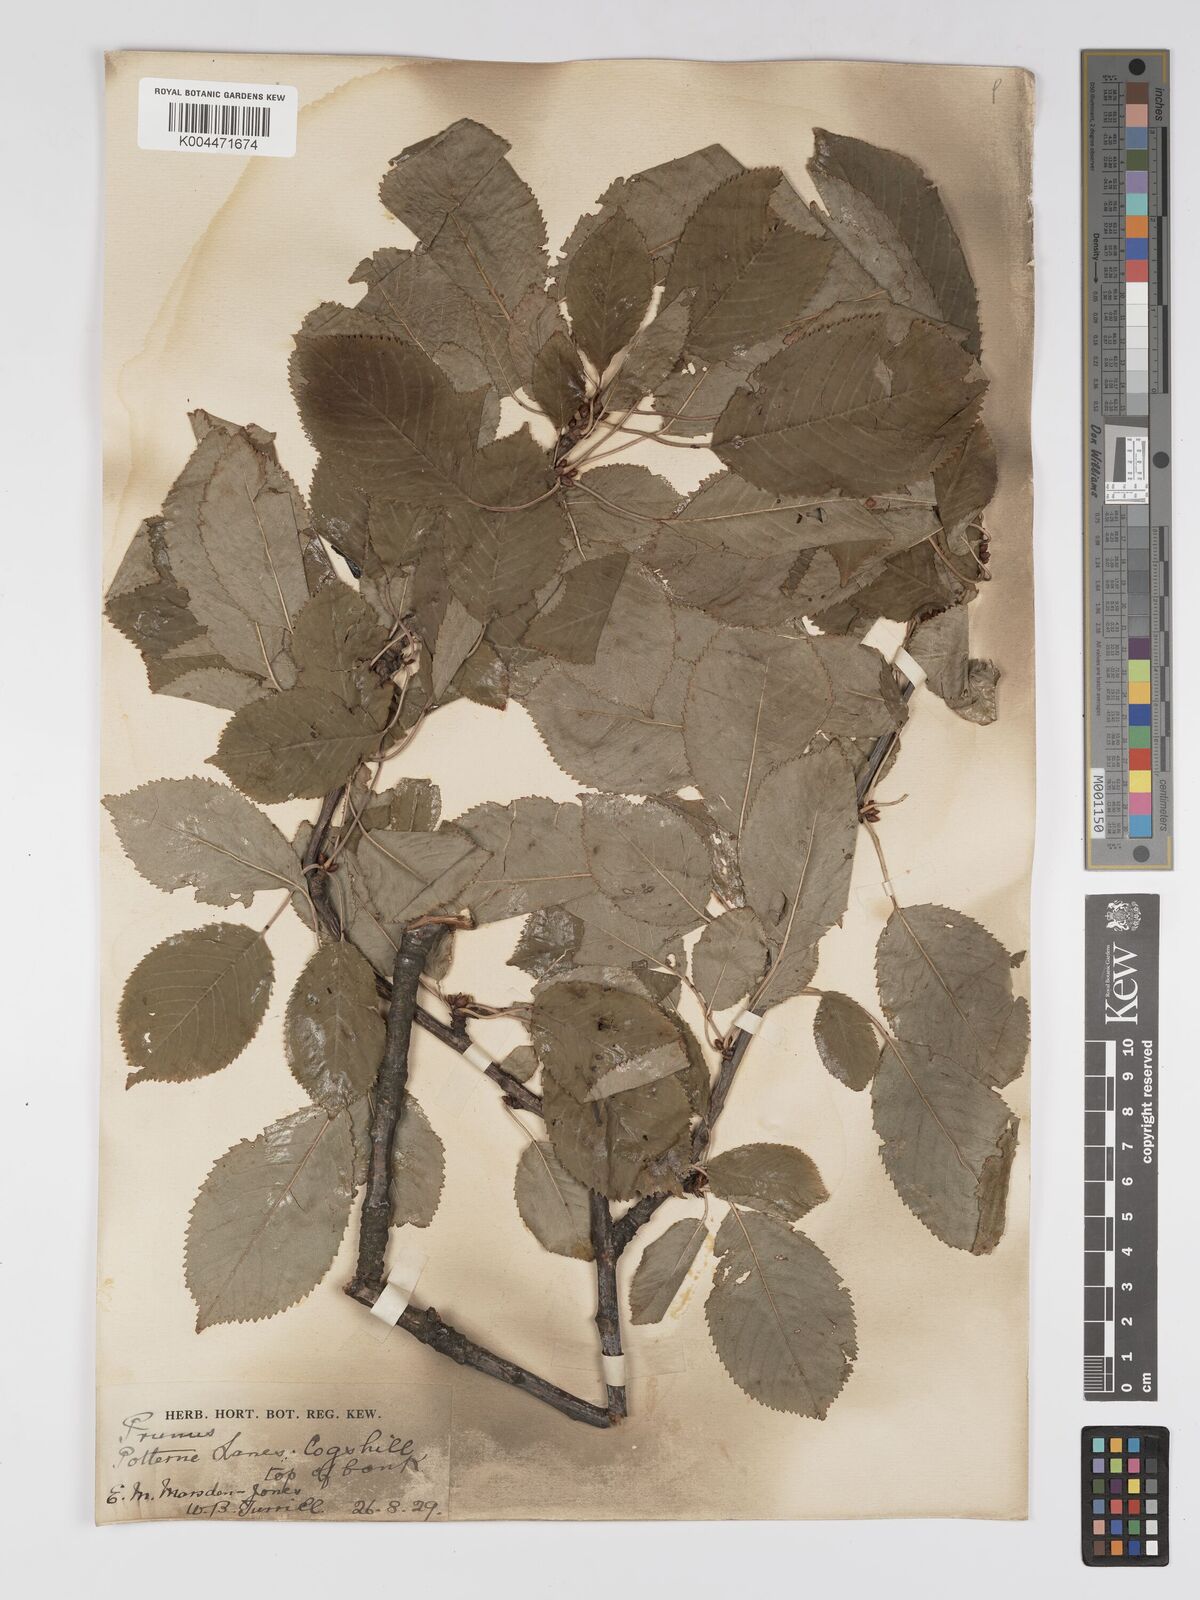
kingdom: Plantae
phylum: Tracheophyta
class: Magnoliopsida
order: Rosales
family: Rosaceae
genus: Prunus
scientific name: Prunus
